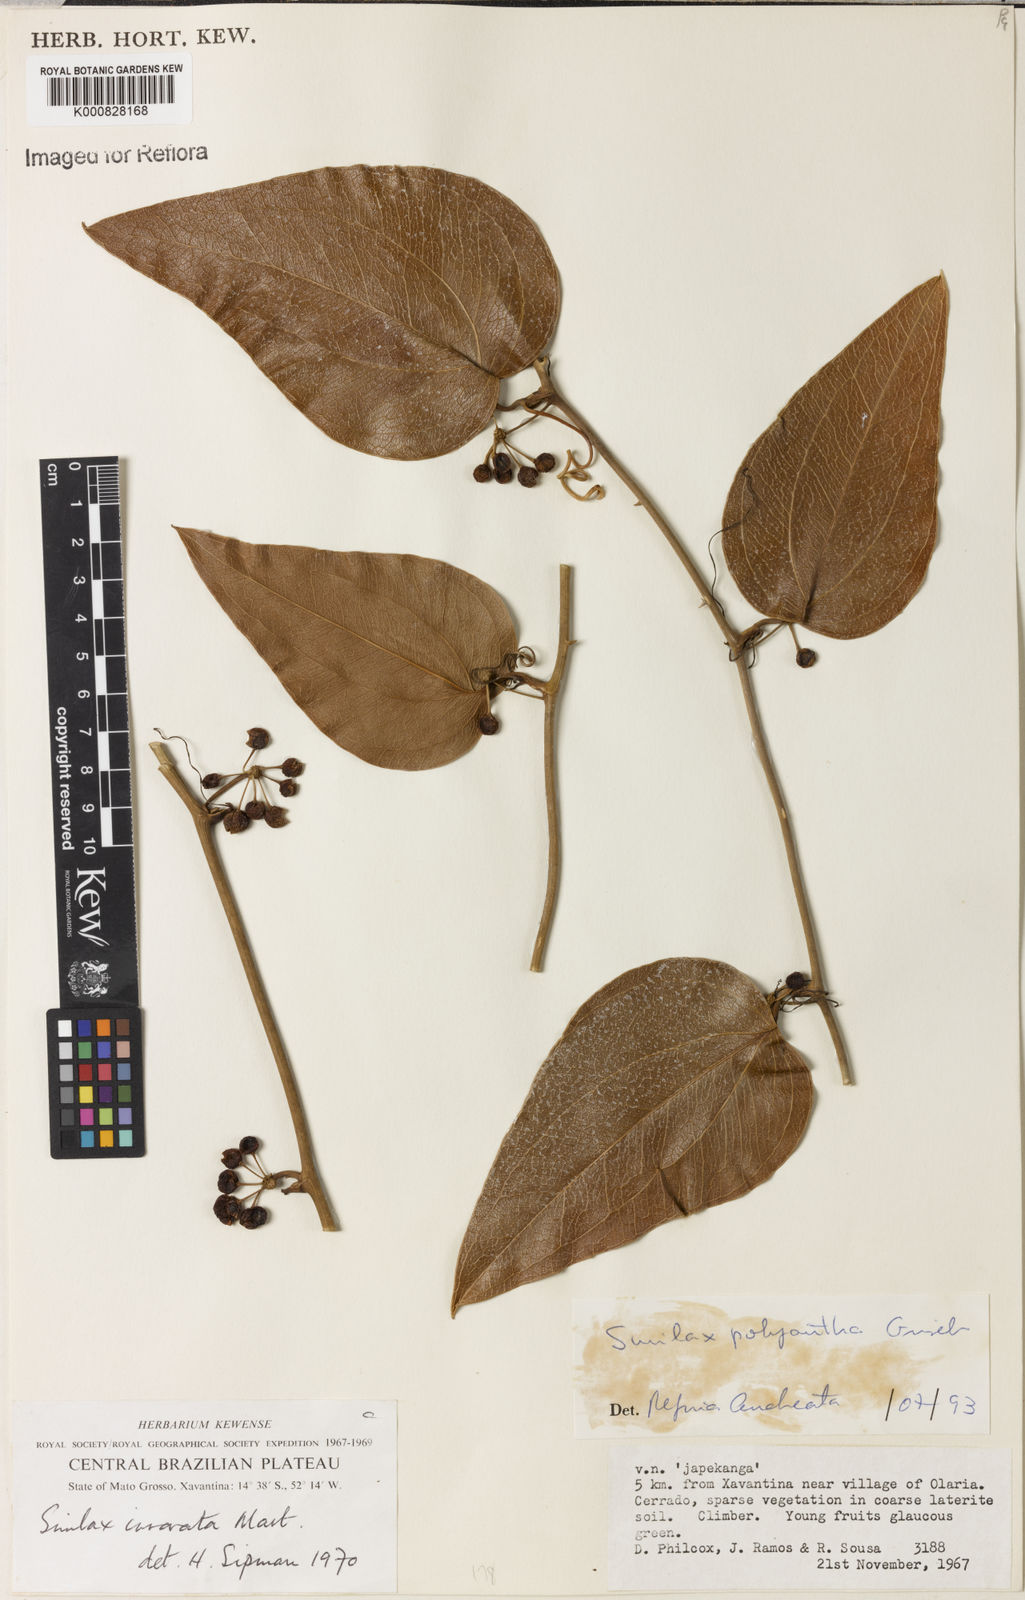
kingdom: Plantae
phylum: Tracheophyta
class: Liliopsida
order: Liliales
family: Smilacaceae
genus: Smilax
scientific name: Smilax polyantha
